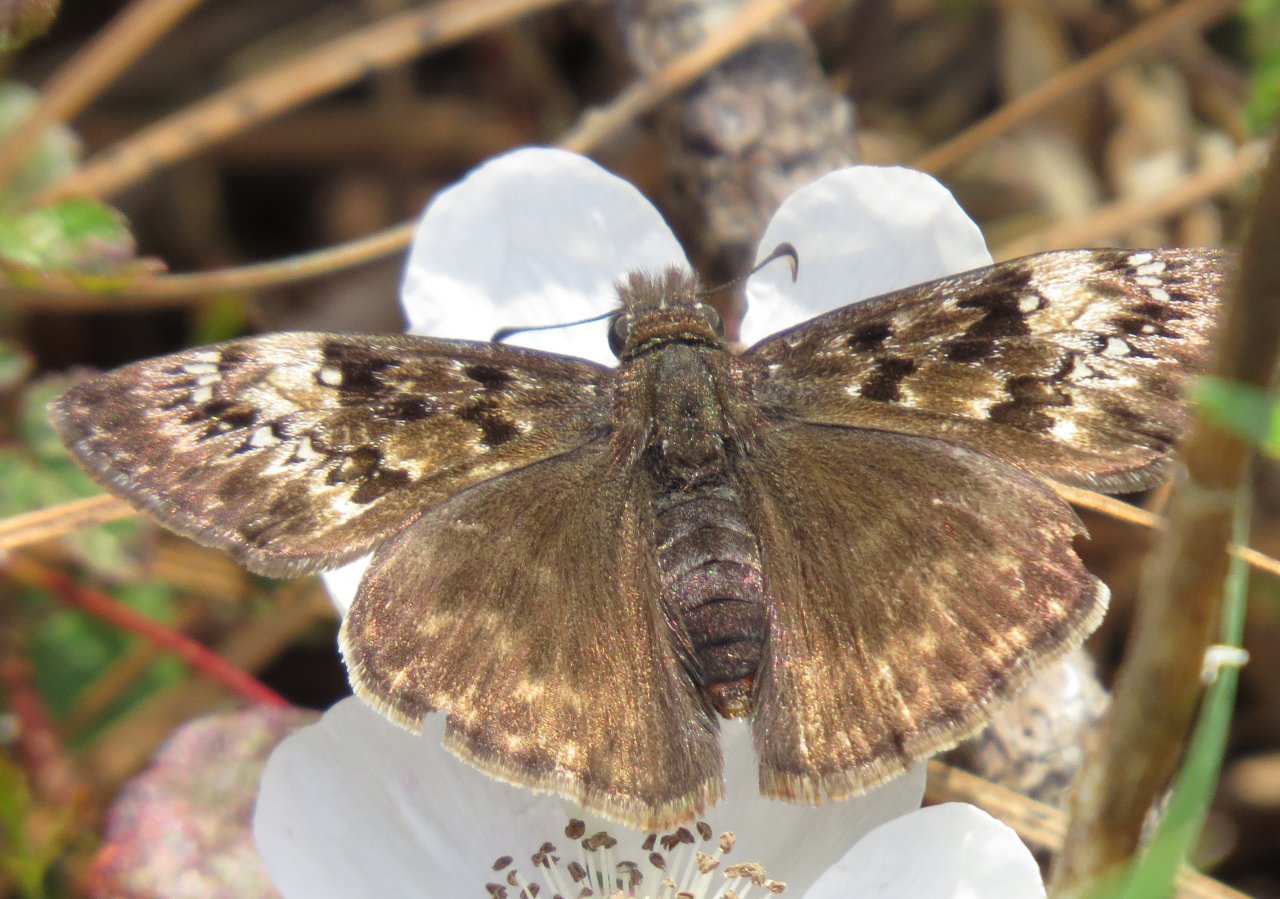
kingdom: Animalia
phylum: Arthropoda
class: Insecta
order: Lepidoptera
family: Hesperiidae
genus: Gesta
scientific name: Gesta
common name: Horace's Duskywing
